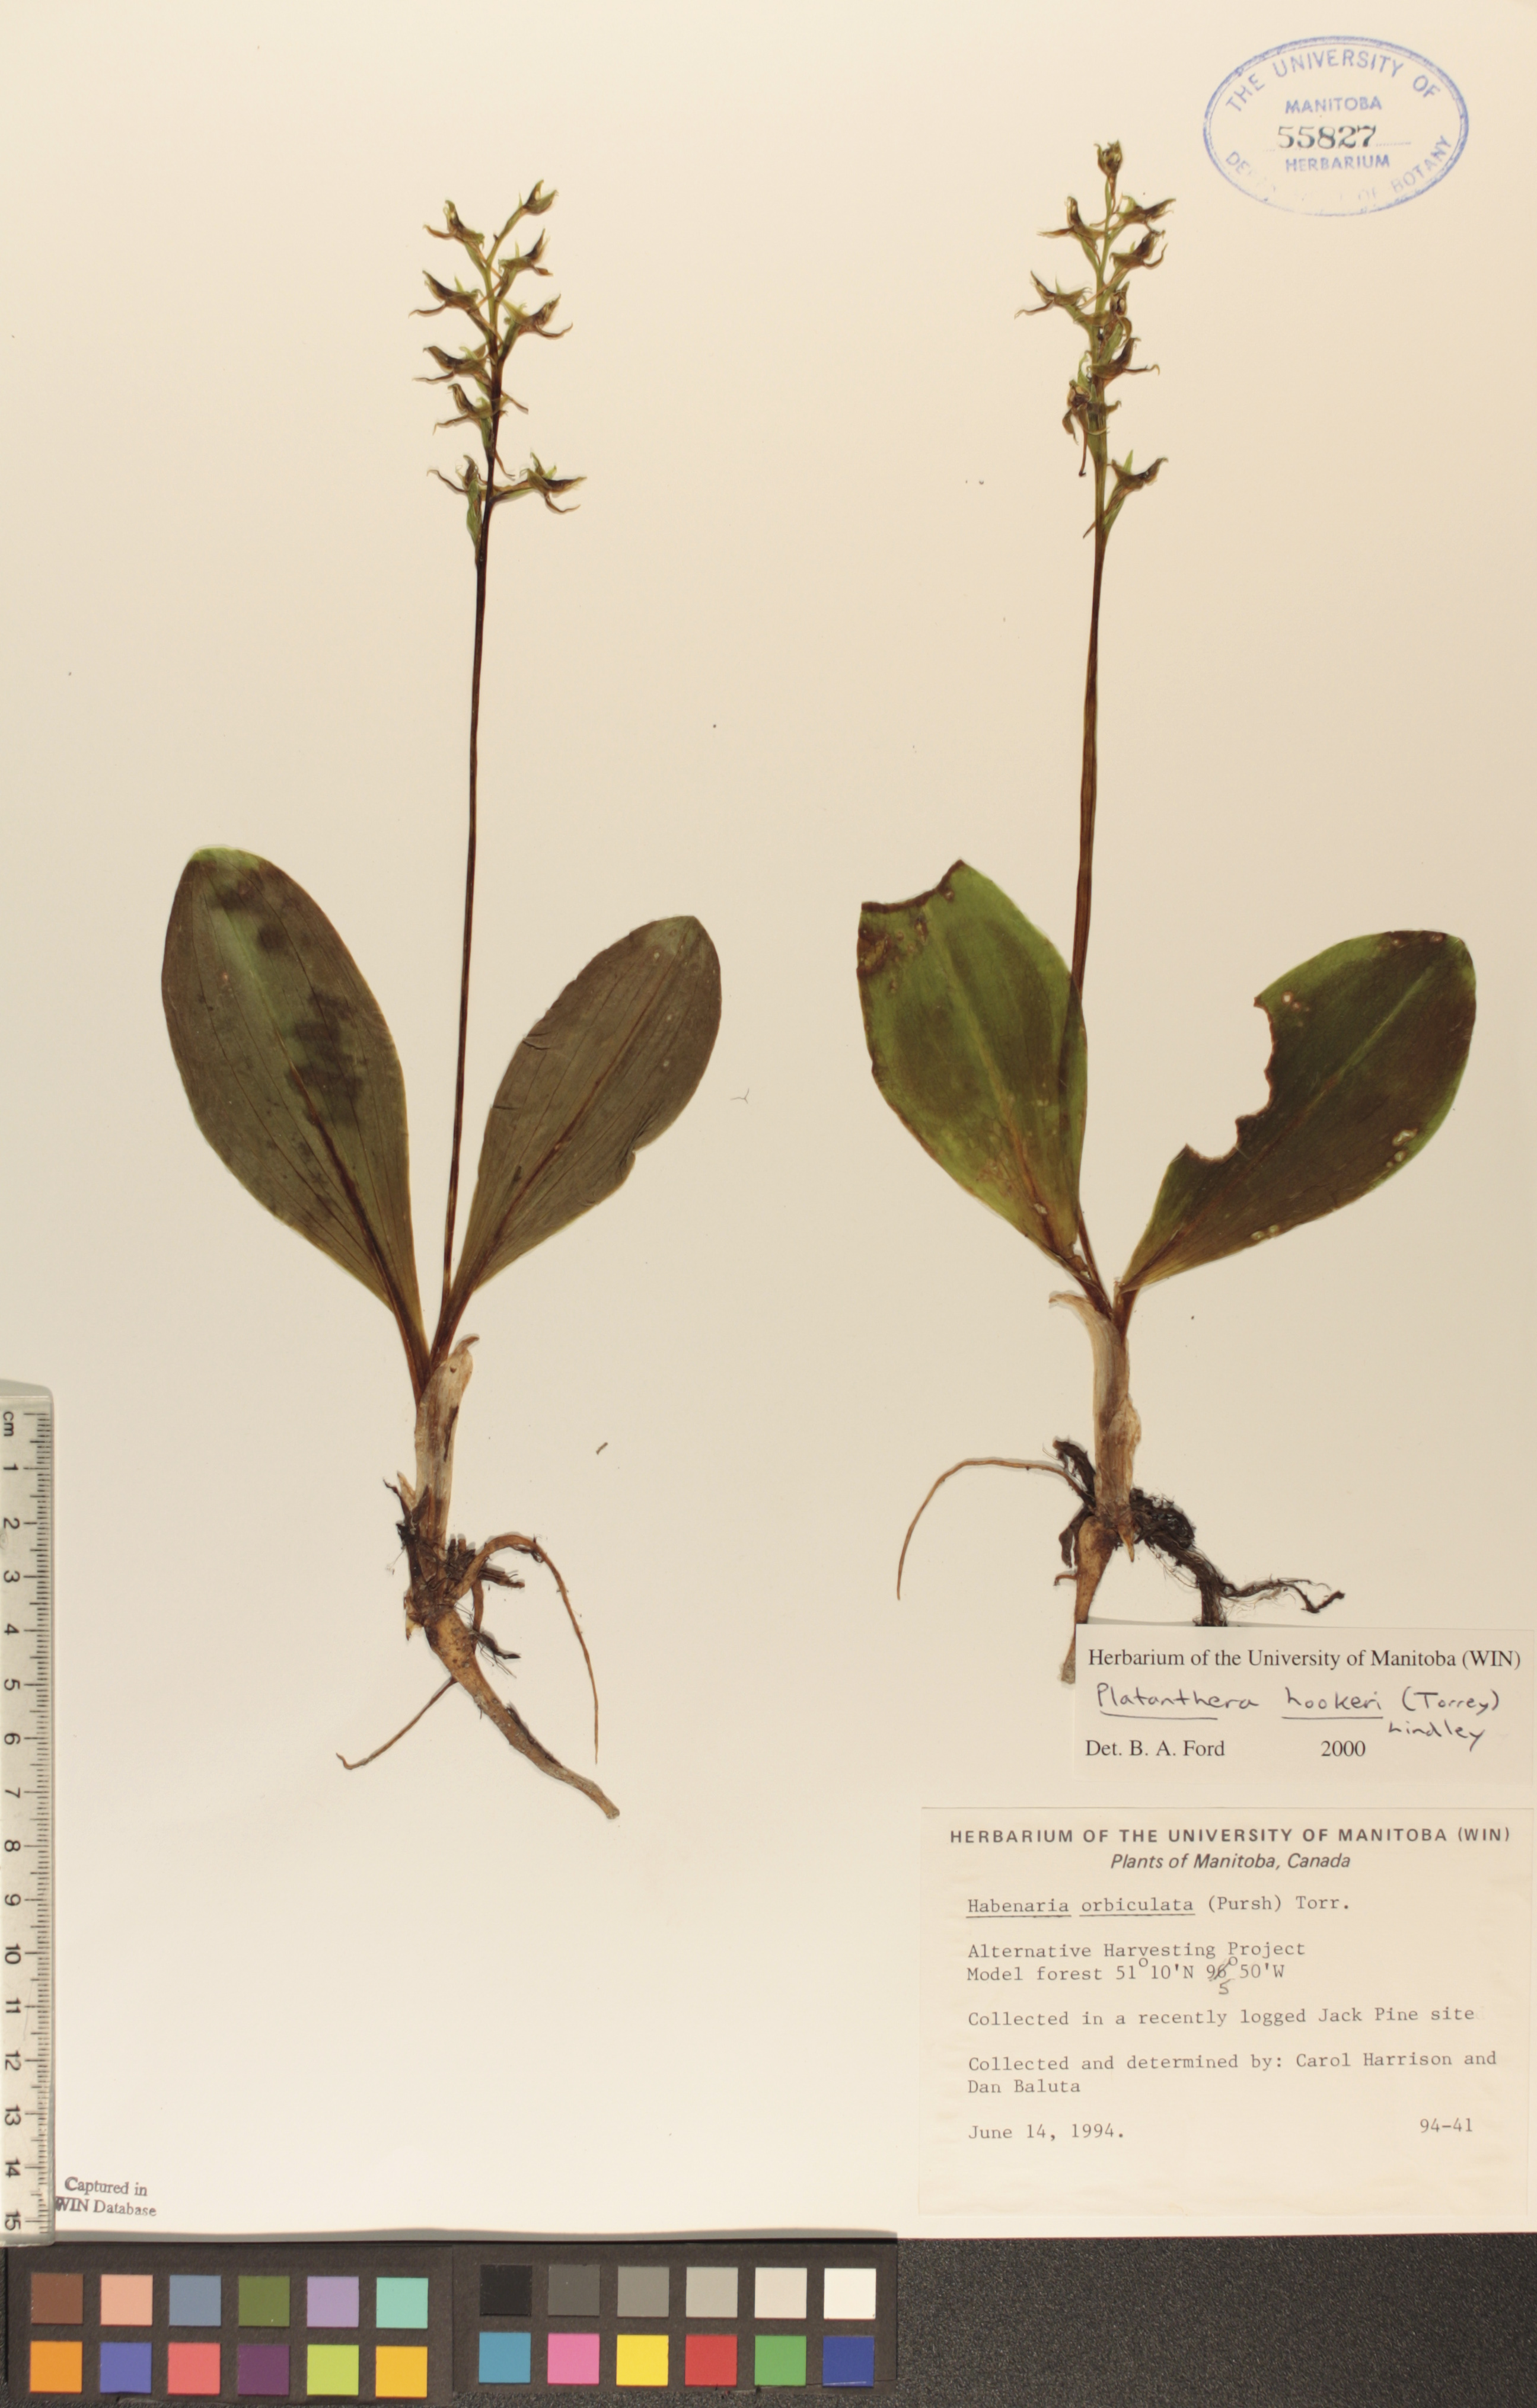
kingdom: Plantae
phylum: Tracheophyta
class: Liliopsida
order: Asparagales
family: Orchidaceae
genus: Platanthera
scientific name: Platanthera hookeri
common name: Hooker's orchid
